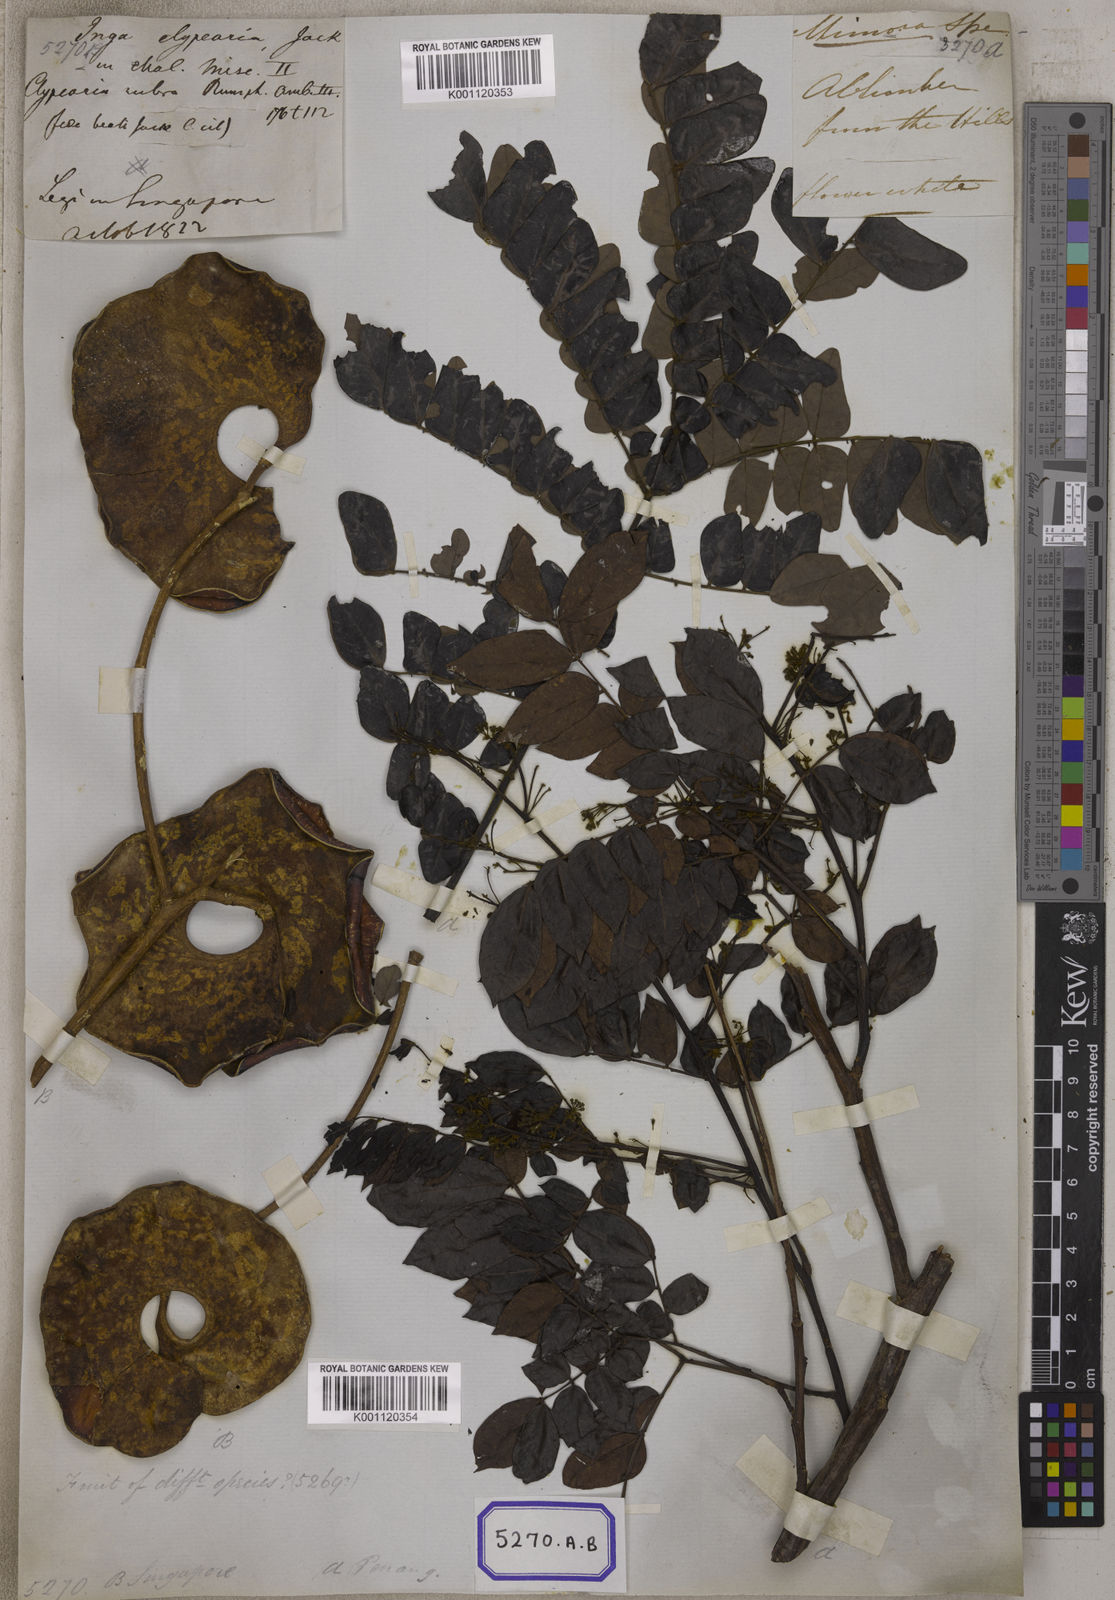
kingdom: Plantae
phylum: Tracheophyta
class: Magnoliopsida
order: Fabales
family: Fabaceae
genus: Archidendron
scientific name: Archidendron clypearia
